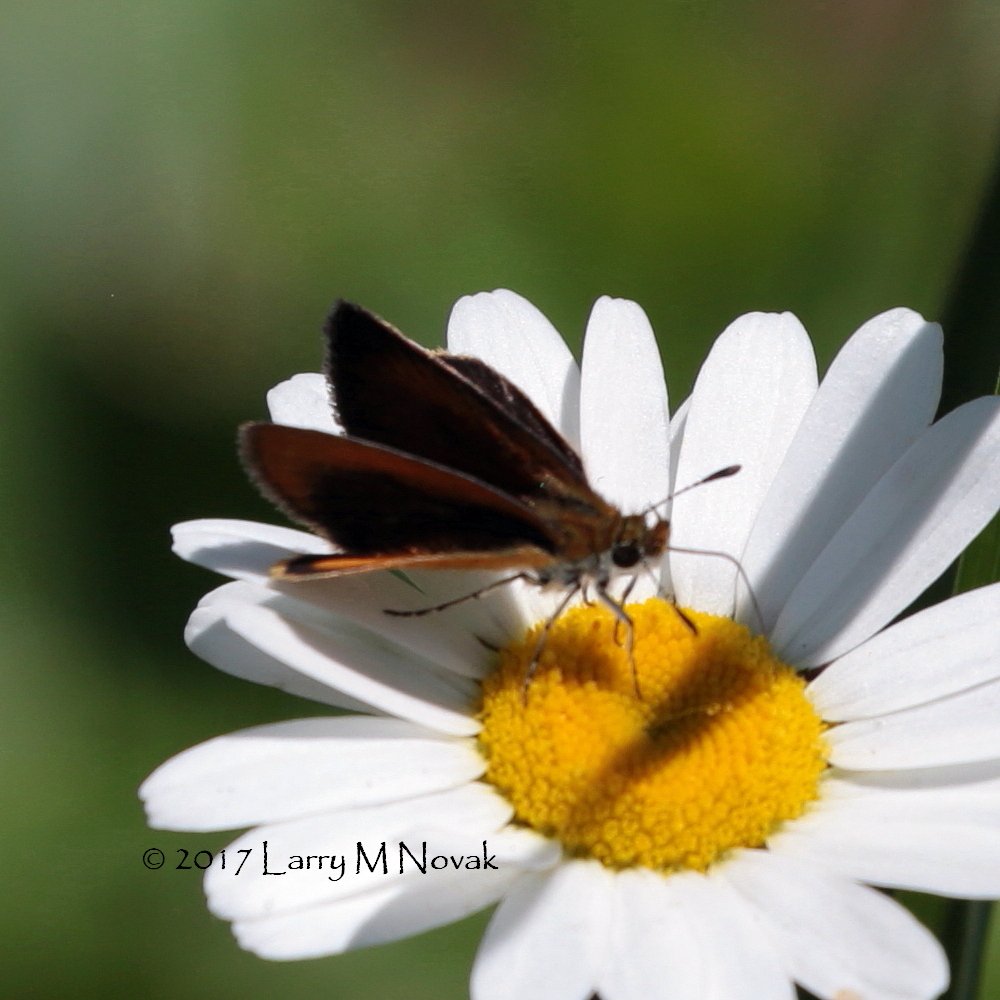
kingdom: Animalia
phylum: Arthropoda
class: Insecta
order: Lepidoptera
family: Hesperiidae
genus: Ancyloxypha
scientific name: Ancyloxypha numitor
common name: Least Skipper
